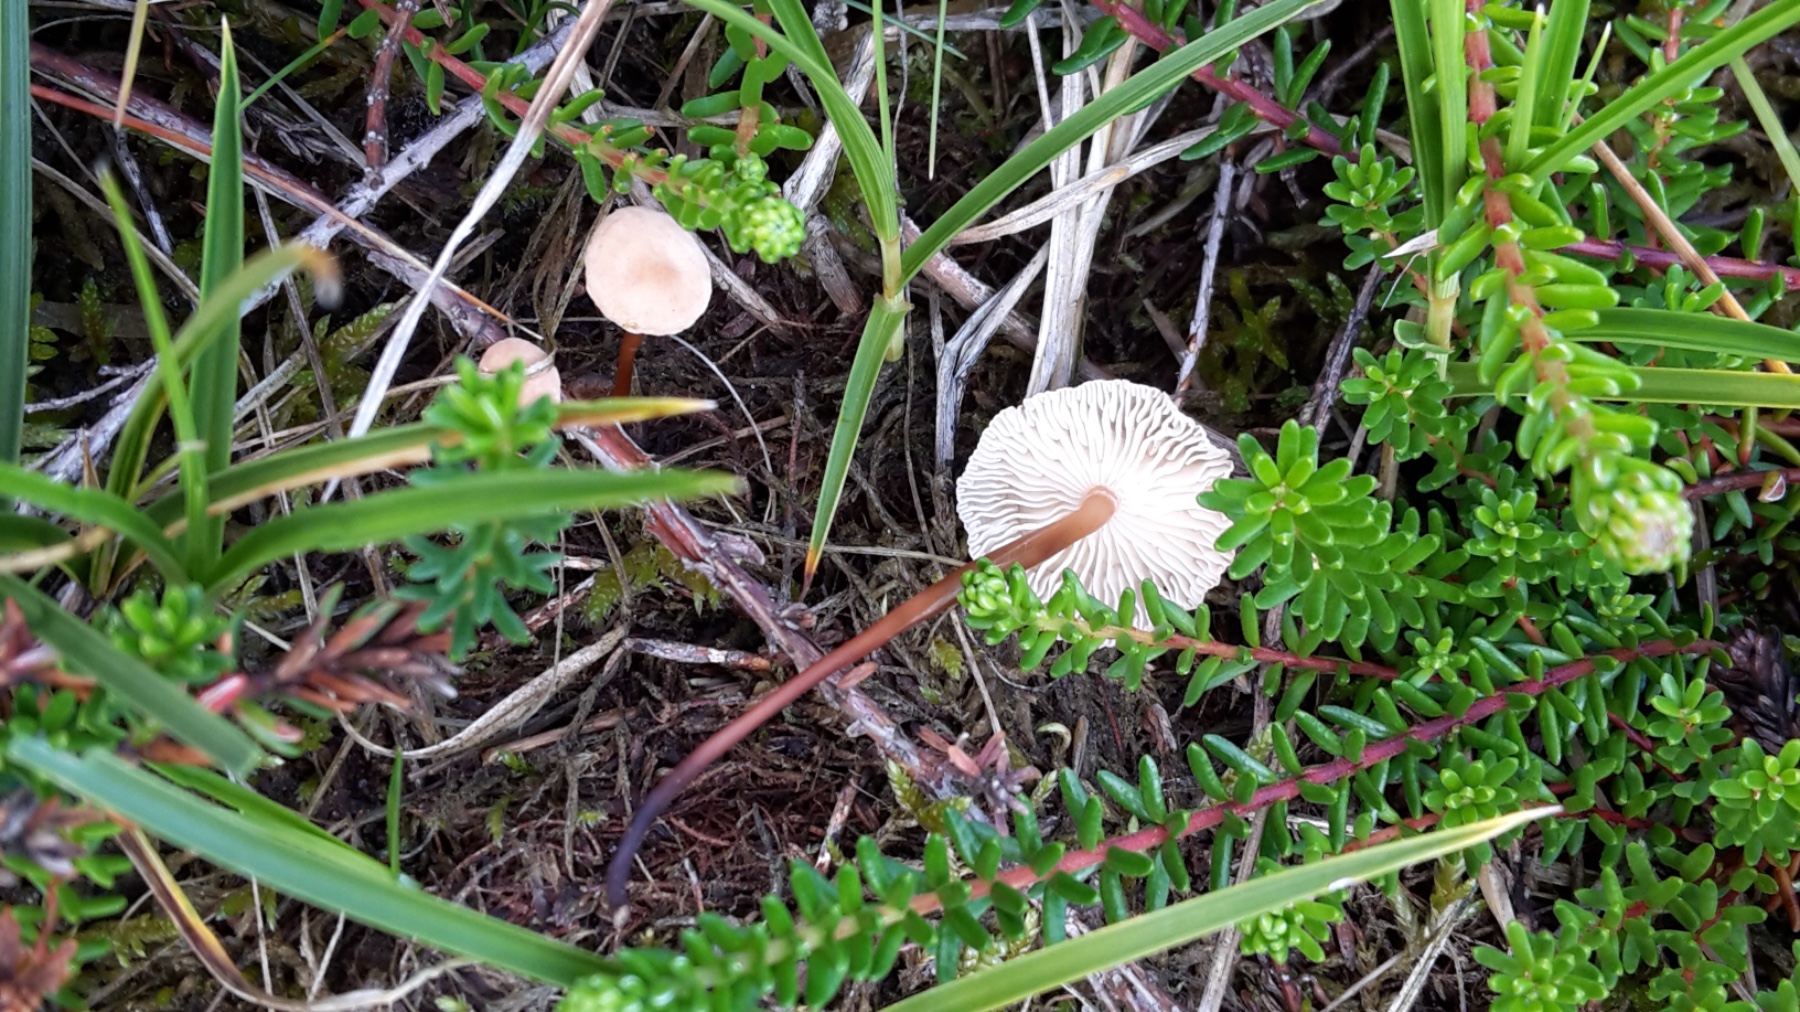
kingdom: Fungi
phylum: Basidiomycota
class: Agaricomycetes
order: Agaricales
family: Omphalotaceae
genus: Mycetinis
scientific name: Mycetinis scorodonius
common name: lille løghat
